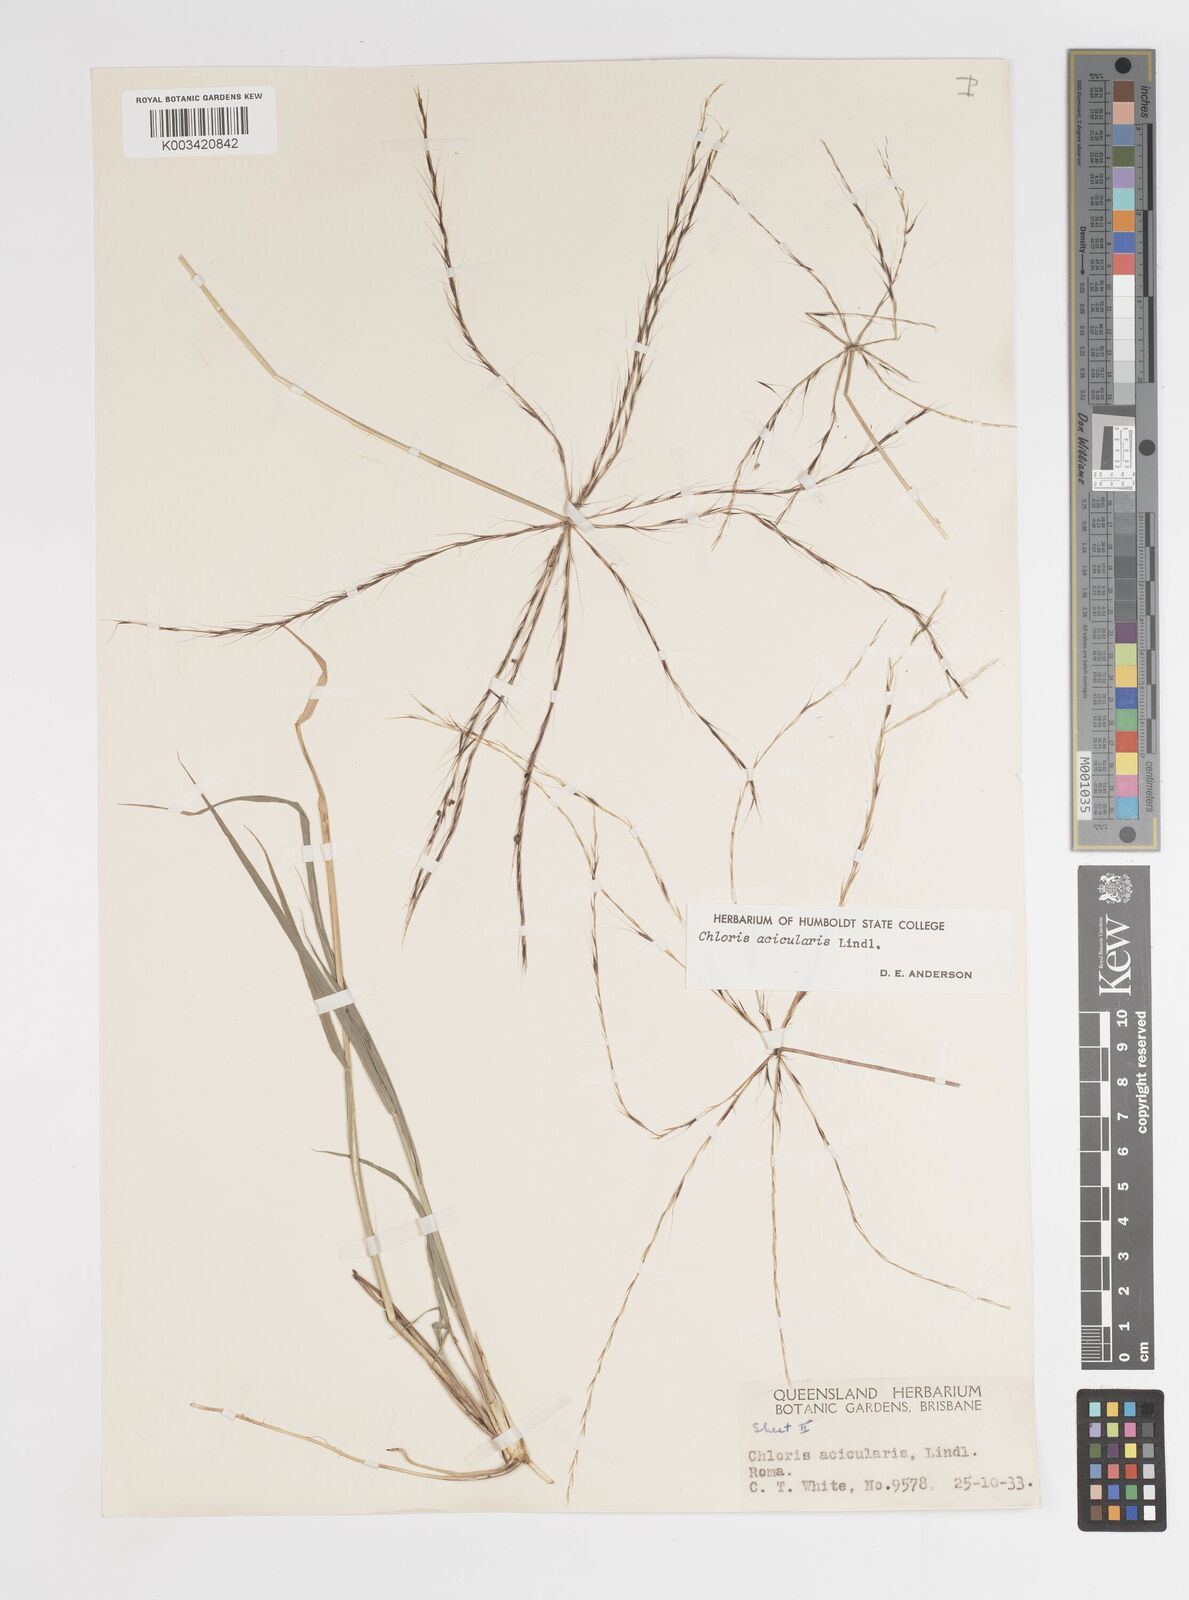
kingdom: Plantae
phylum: Tracheophyta
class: Liliopsida
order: Poales
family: Poaceae
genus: Enteropogon
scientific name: Enteropogon acicularis
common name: Curly windmill grass
